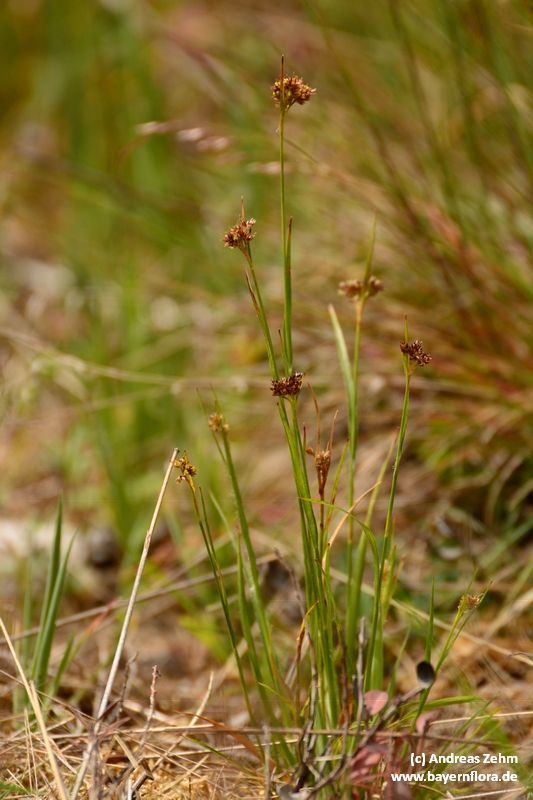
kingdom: Plantae
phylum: Tracheophyta
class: Liliopsida
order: Poales
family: Juncaceae
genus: Luzula
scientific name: Luzula multiflora
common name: Heath wood-rush
